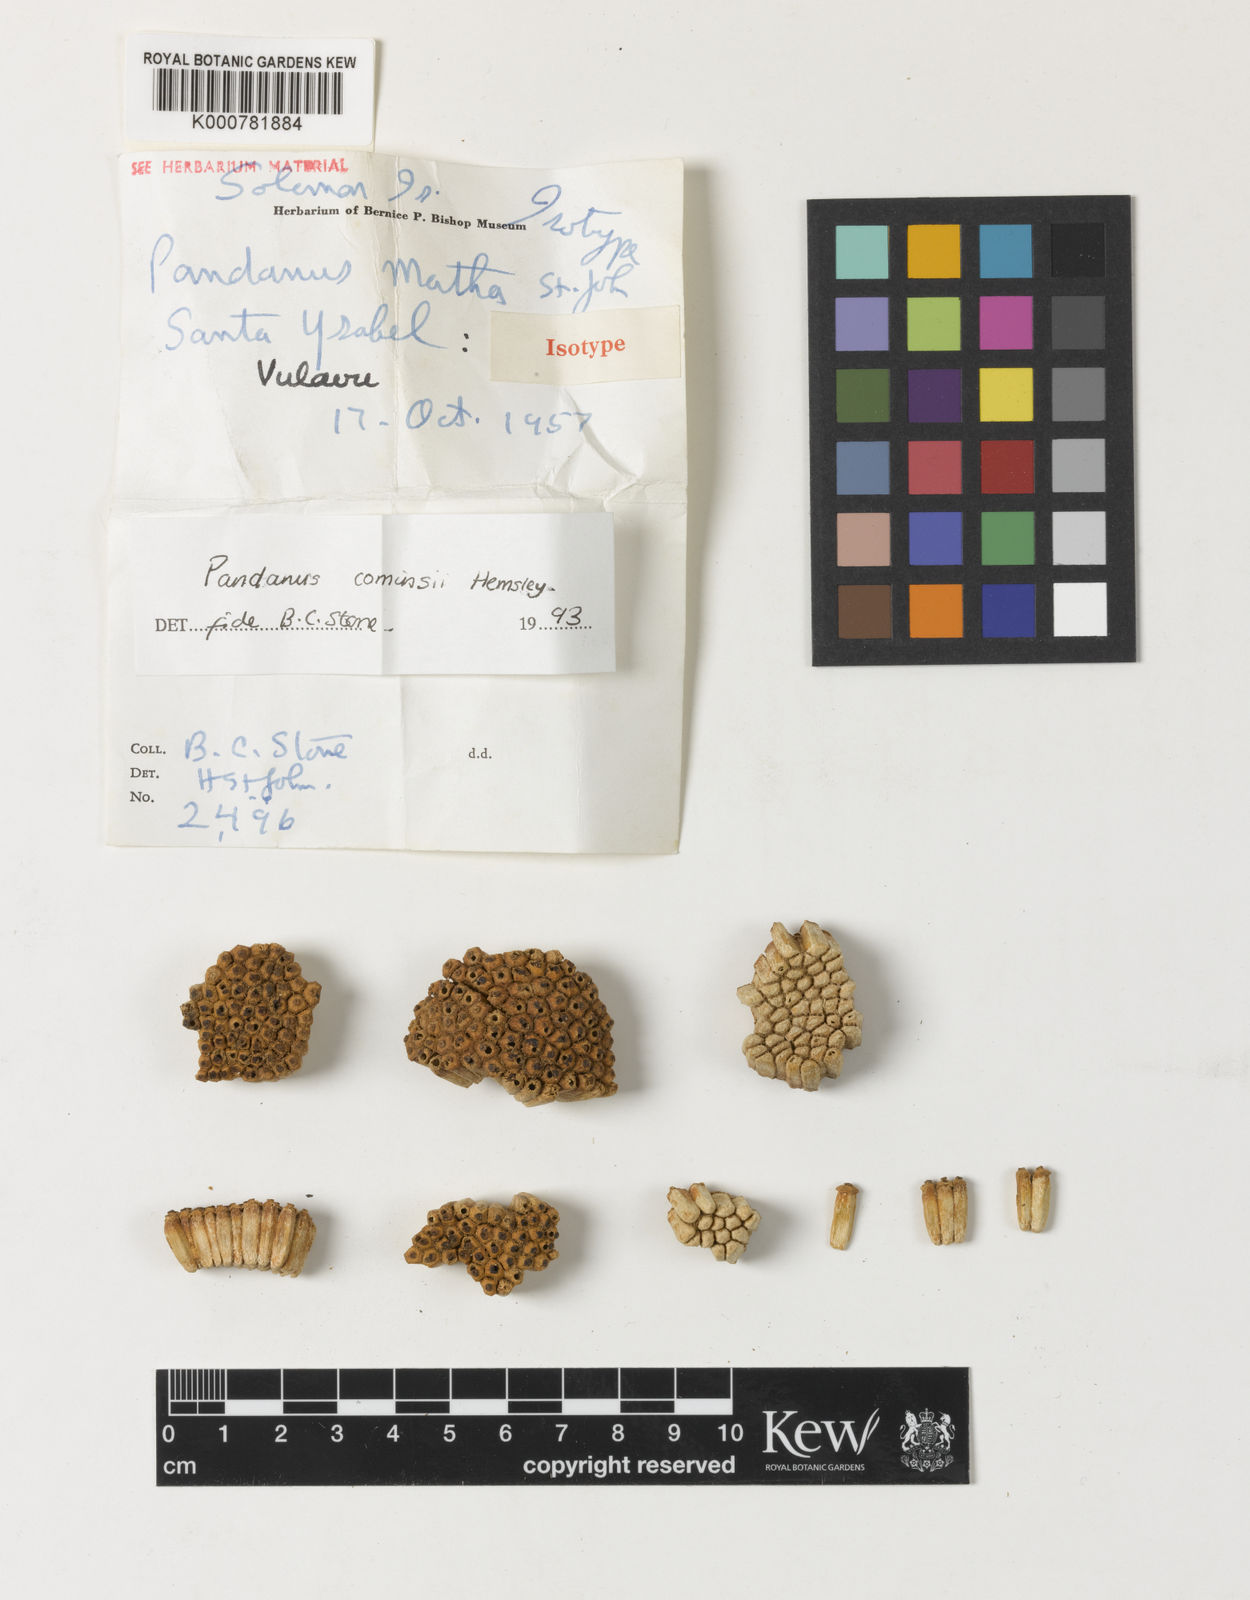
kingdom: Plantae
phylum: Tracheophyta
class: Liliopsida
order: Pandanales
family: Pandanaceae
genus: Pandanus
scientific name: Pandanus conoideus
